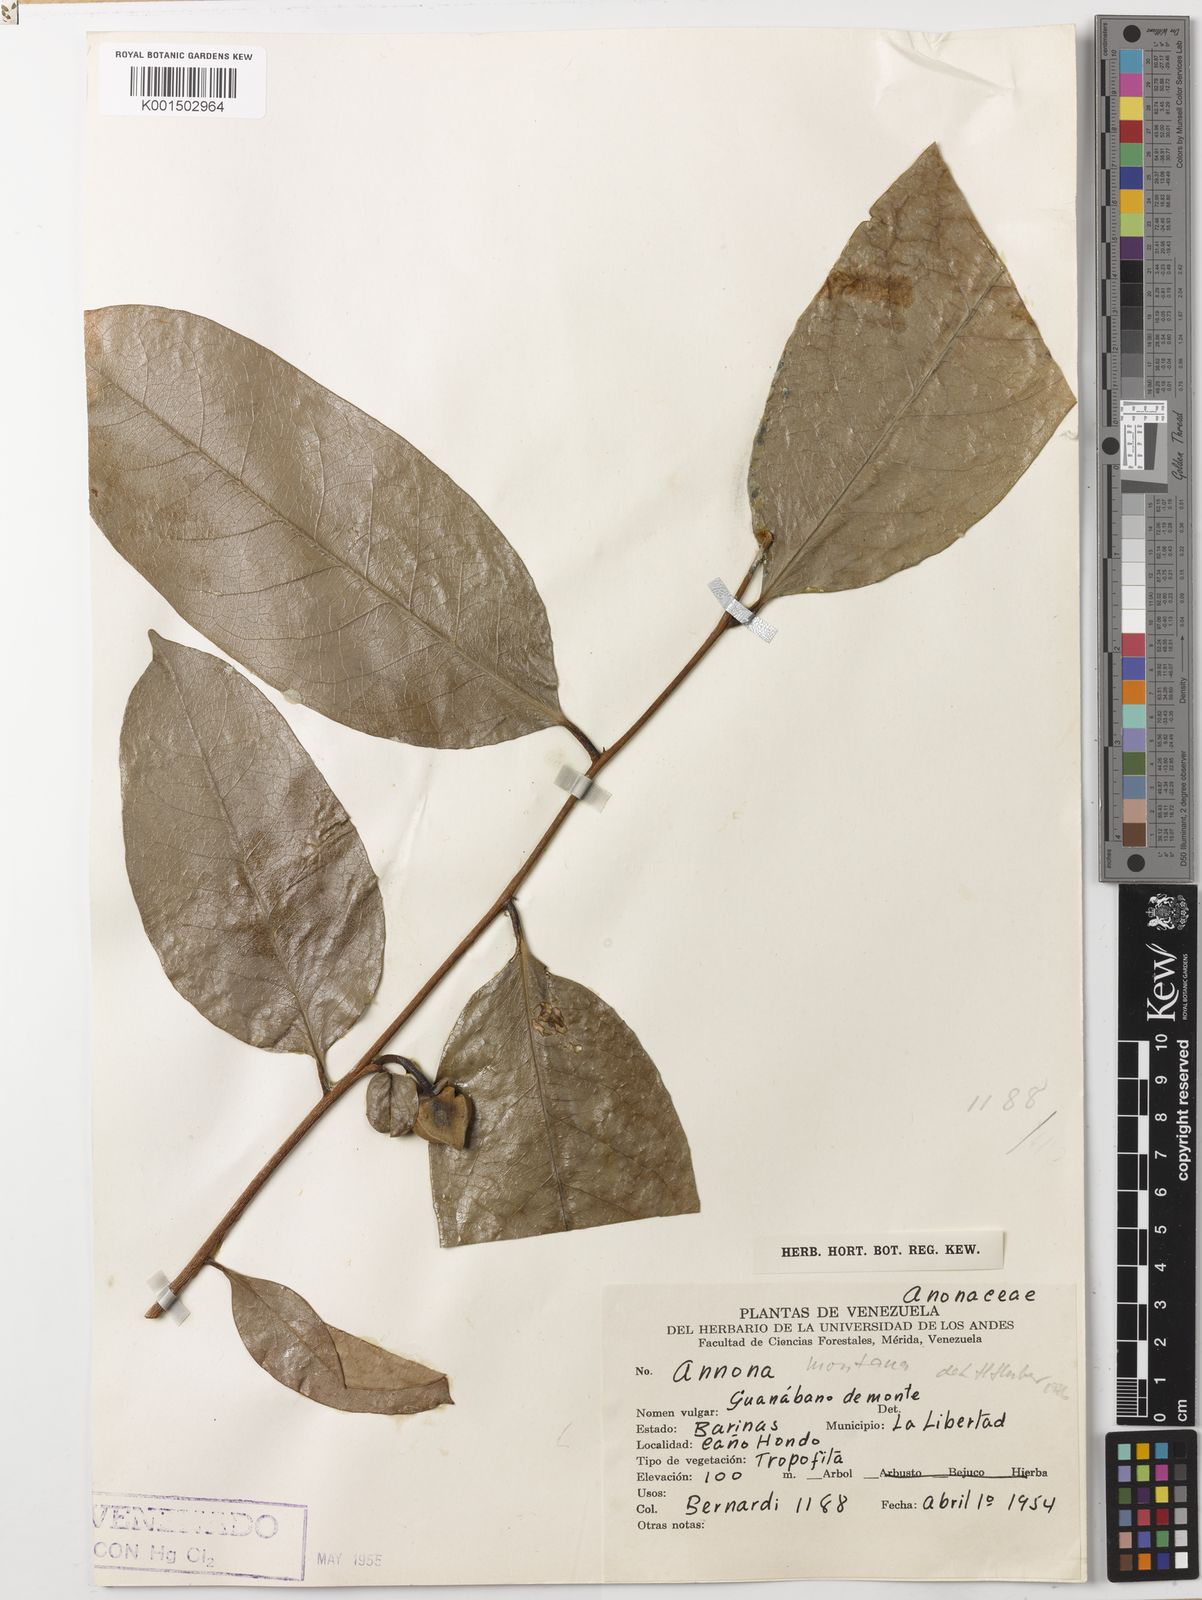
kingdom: Plantae
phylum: Tracheophyta
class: Magnoliopsida
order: Magnoliales
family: Annonaceae
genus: Annona
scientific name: Annona montana
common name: Mountain soursop
